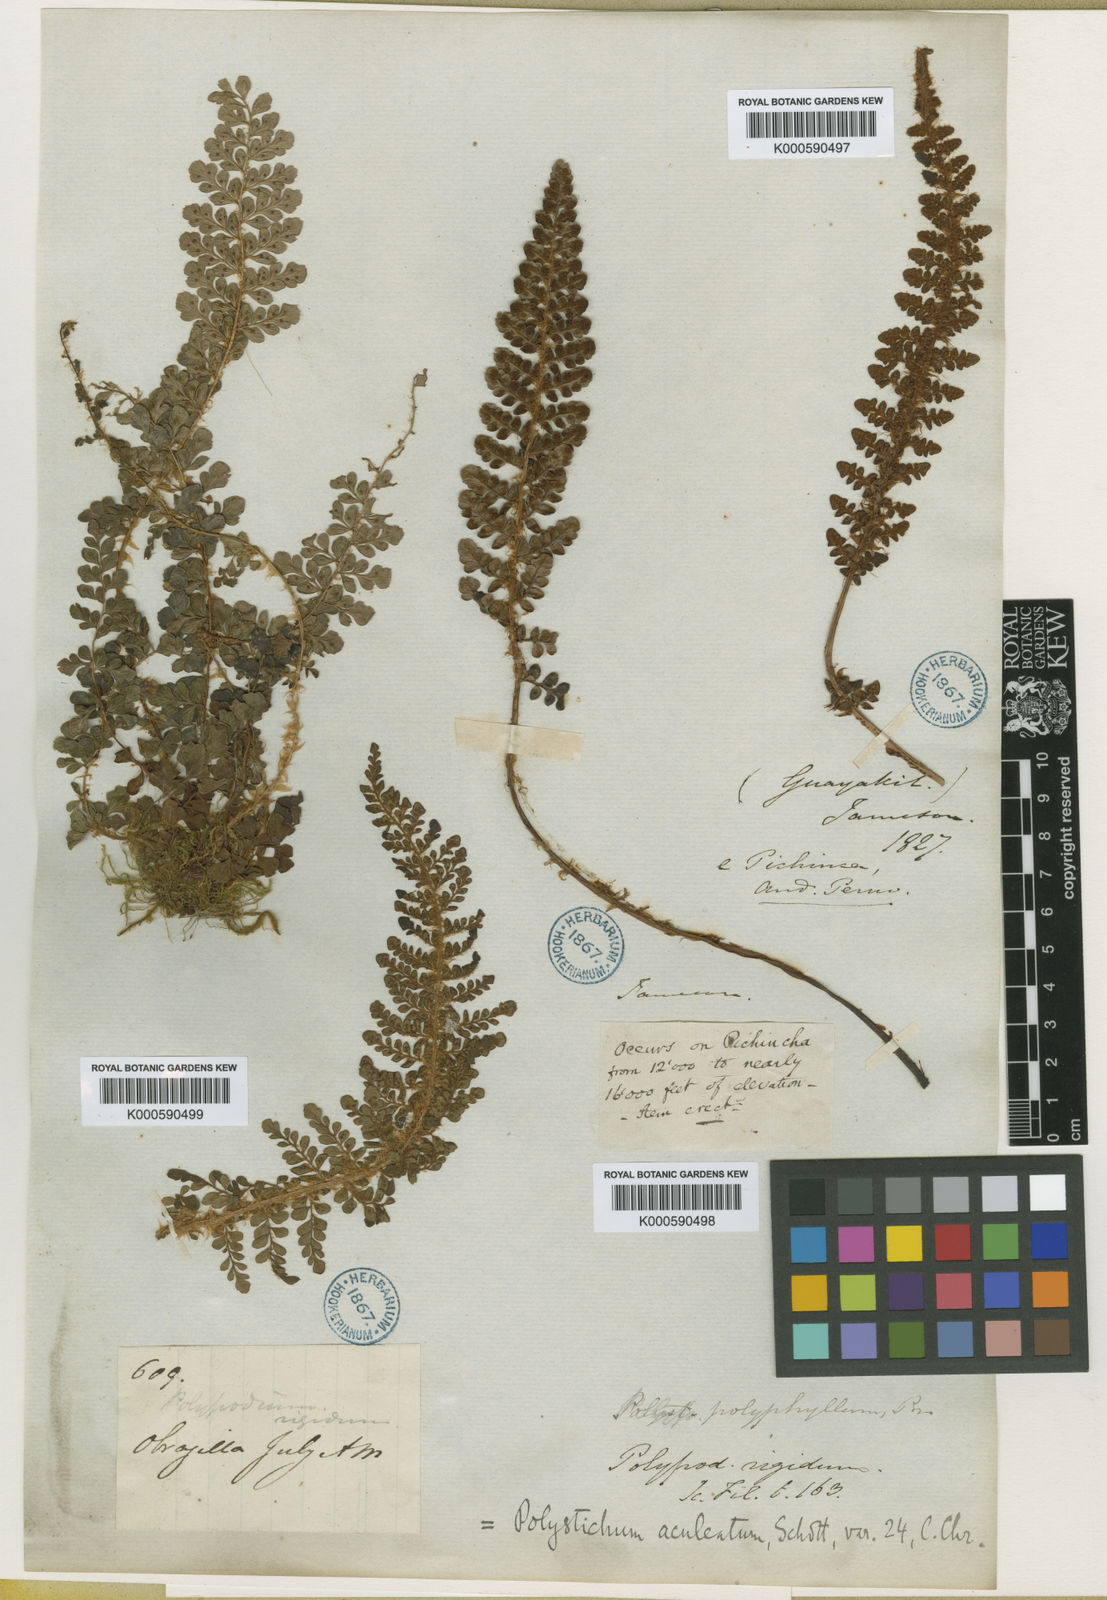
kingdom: Plantae
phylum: Tracheophyta
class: Polypodiopsida
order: Polypodiales
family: Dryopteridaceae
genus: Polystichum
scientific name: Polystichum
